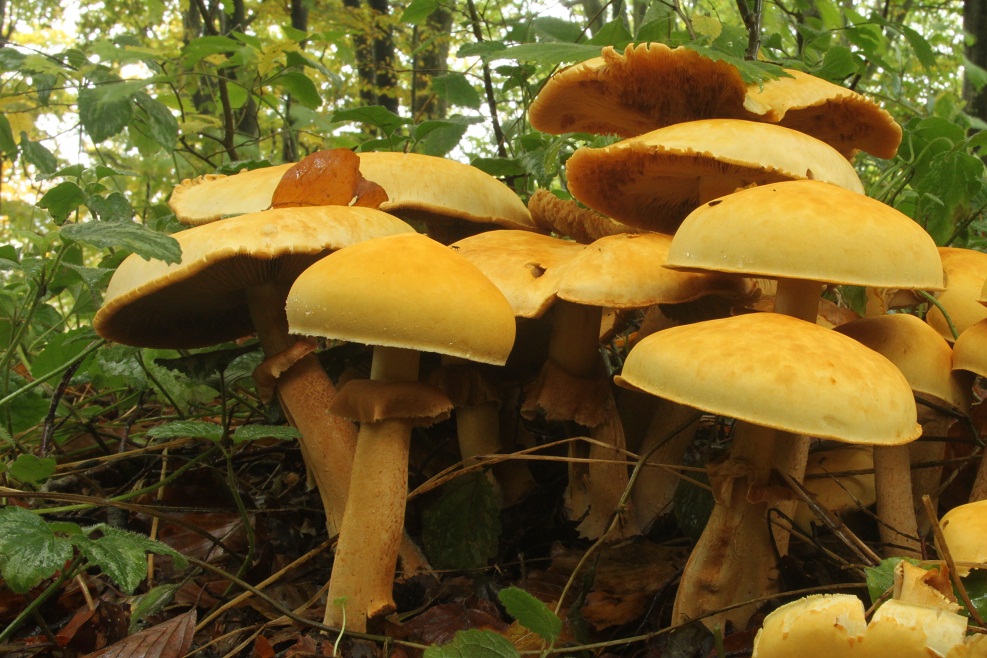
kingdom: Fungi
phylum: Basidiomycota
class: Agaricomycetes
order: Agaricales
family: Tricholomataceae
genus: Phaeolepiota
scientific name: Phaeolepiota aurea
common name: gyldenhat
